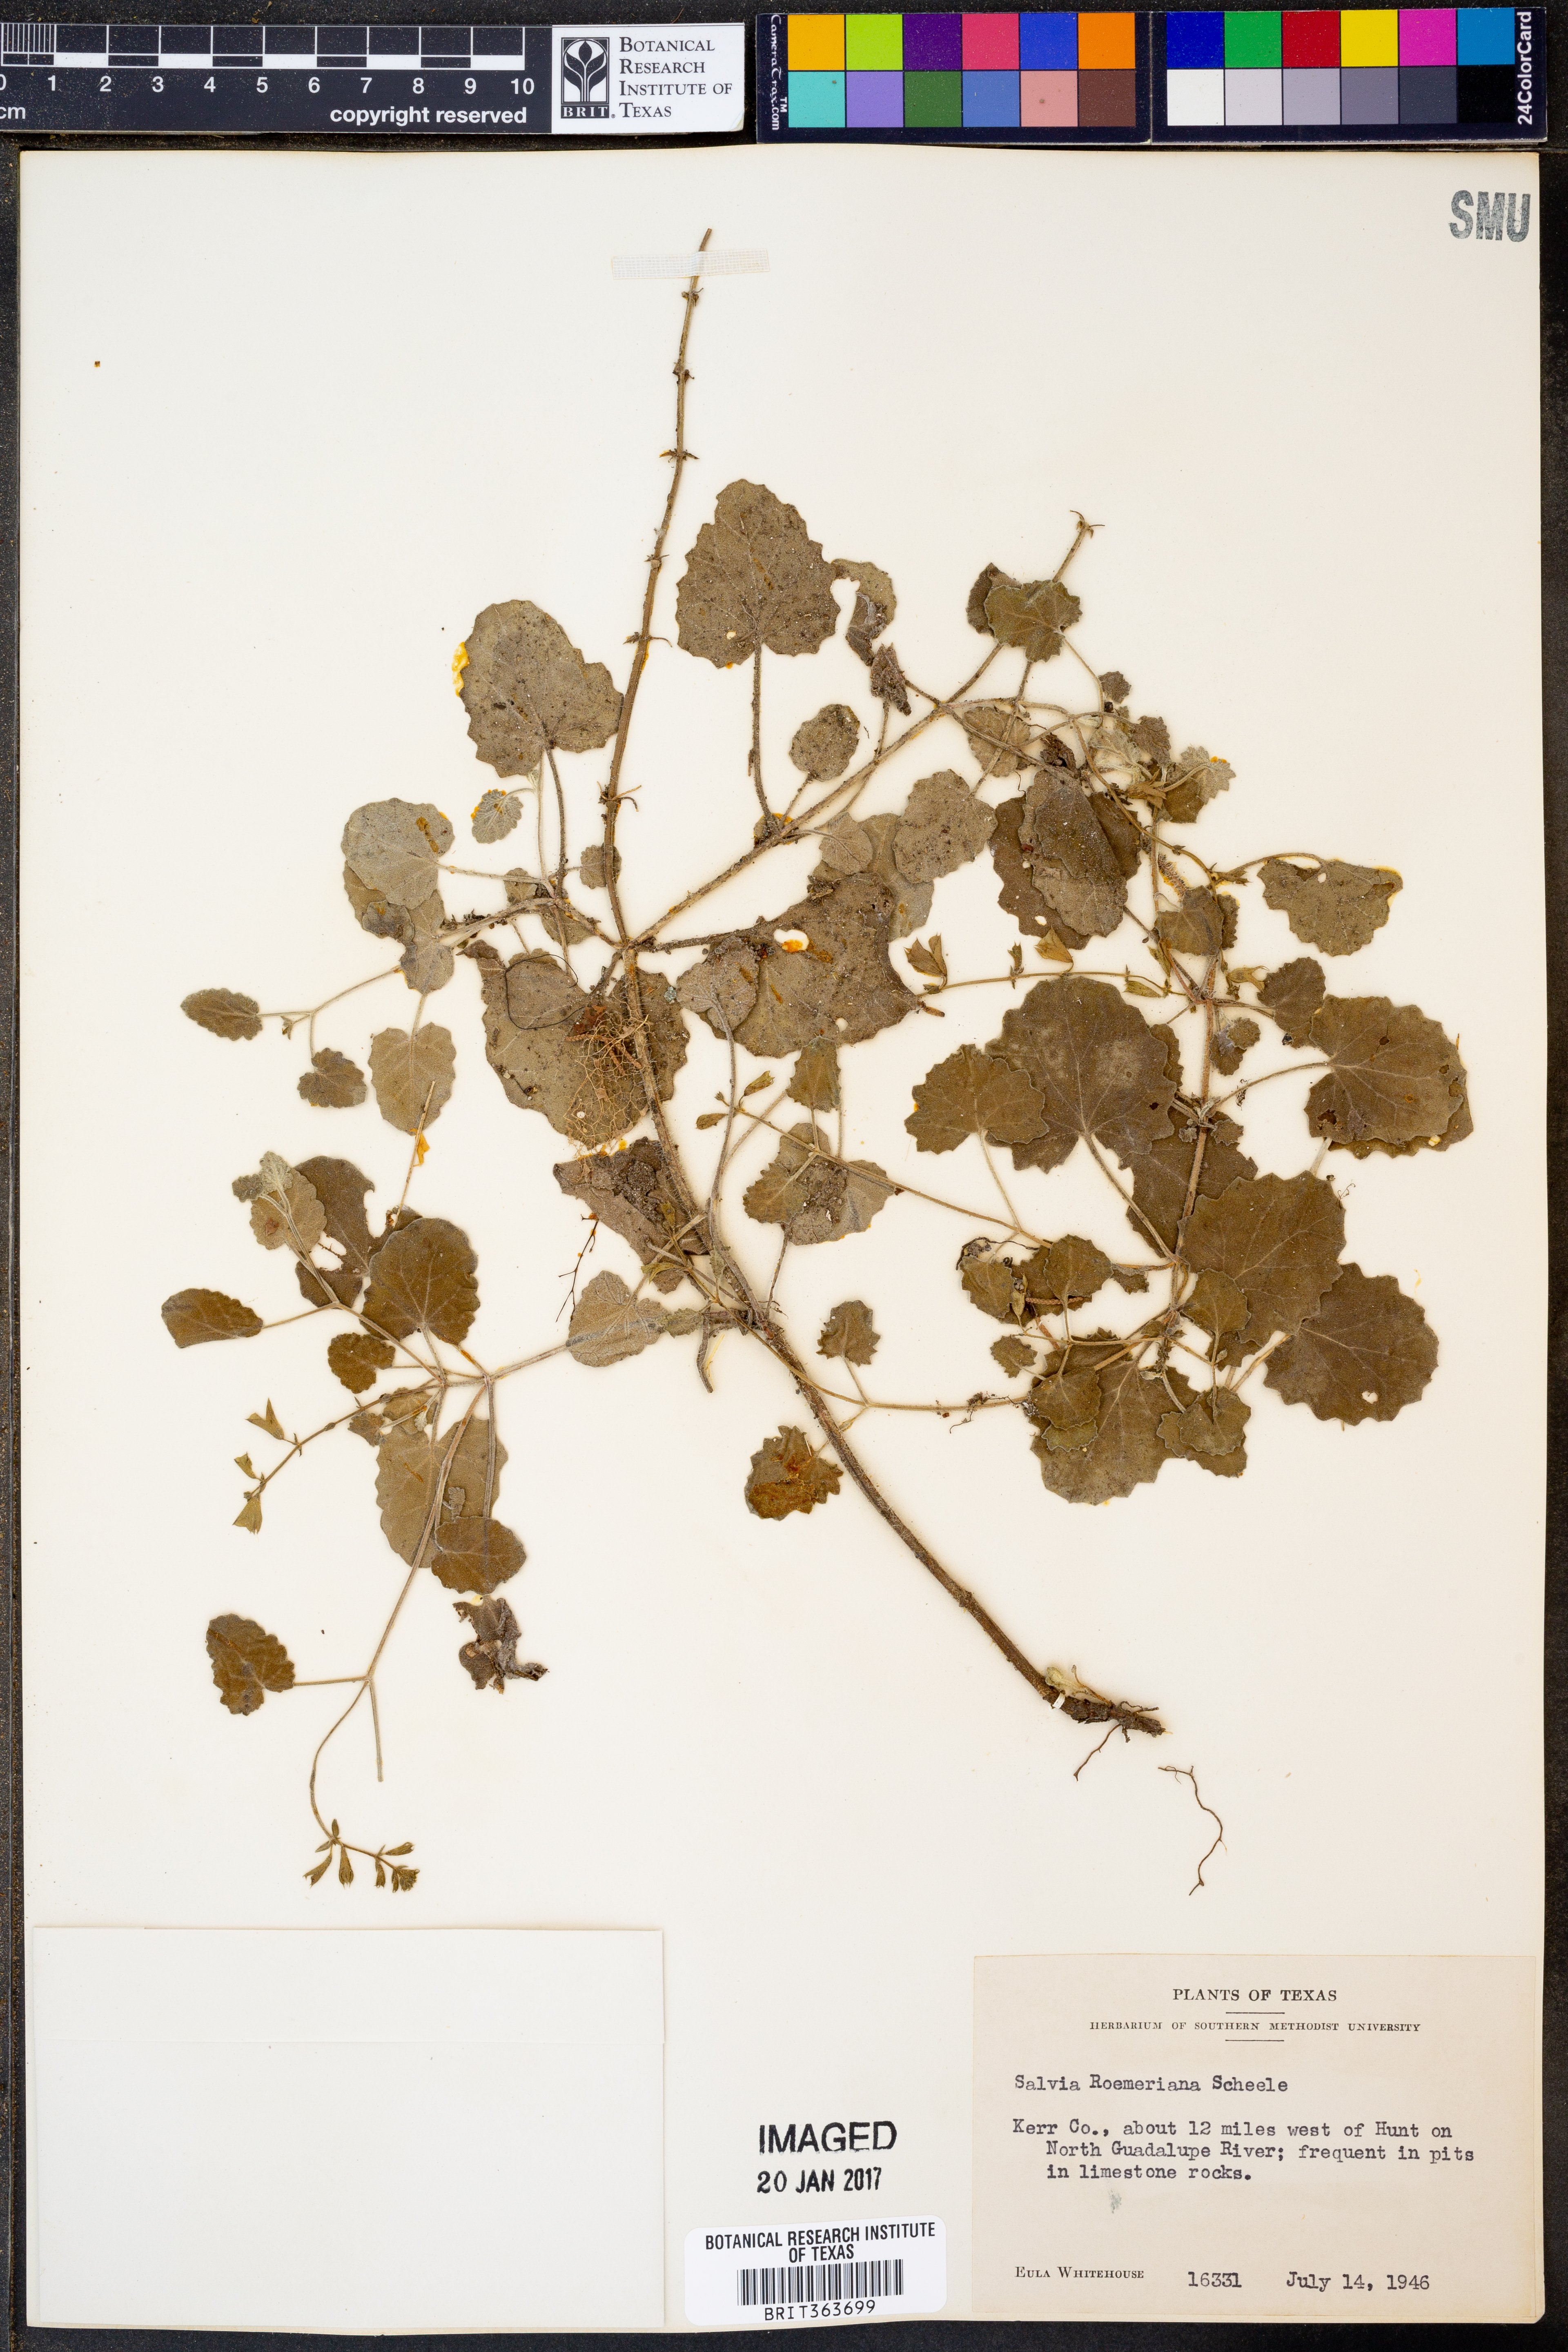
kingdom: Plantae
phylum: Tracheophyta
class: Magnoliopsida
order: Lamiales
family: Lamiaceae
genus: Salvia
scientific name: Salvia roemeriana
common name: Cedar sage
